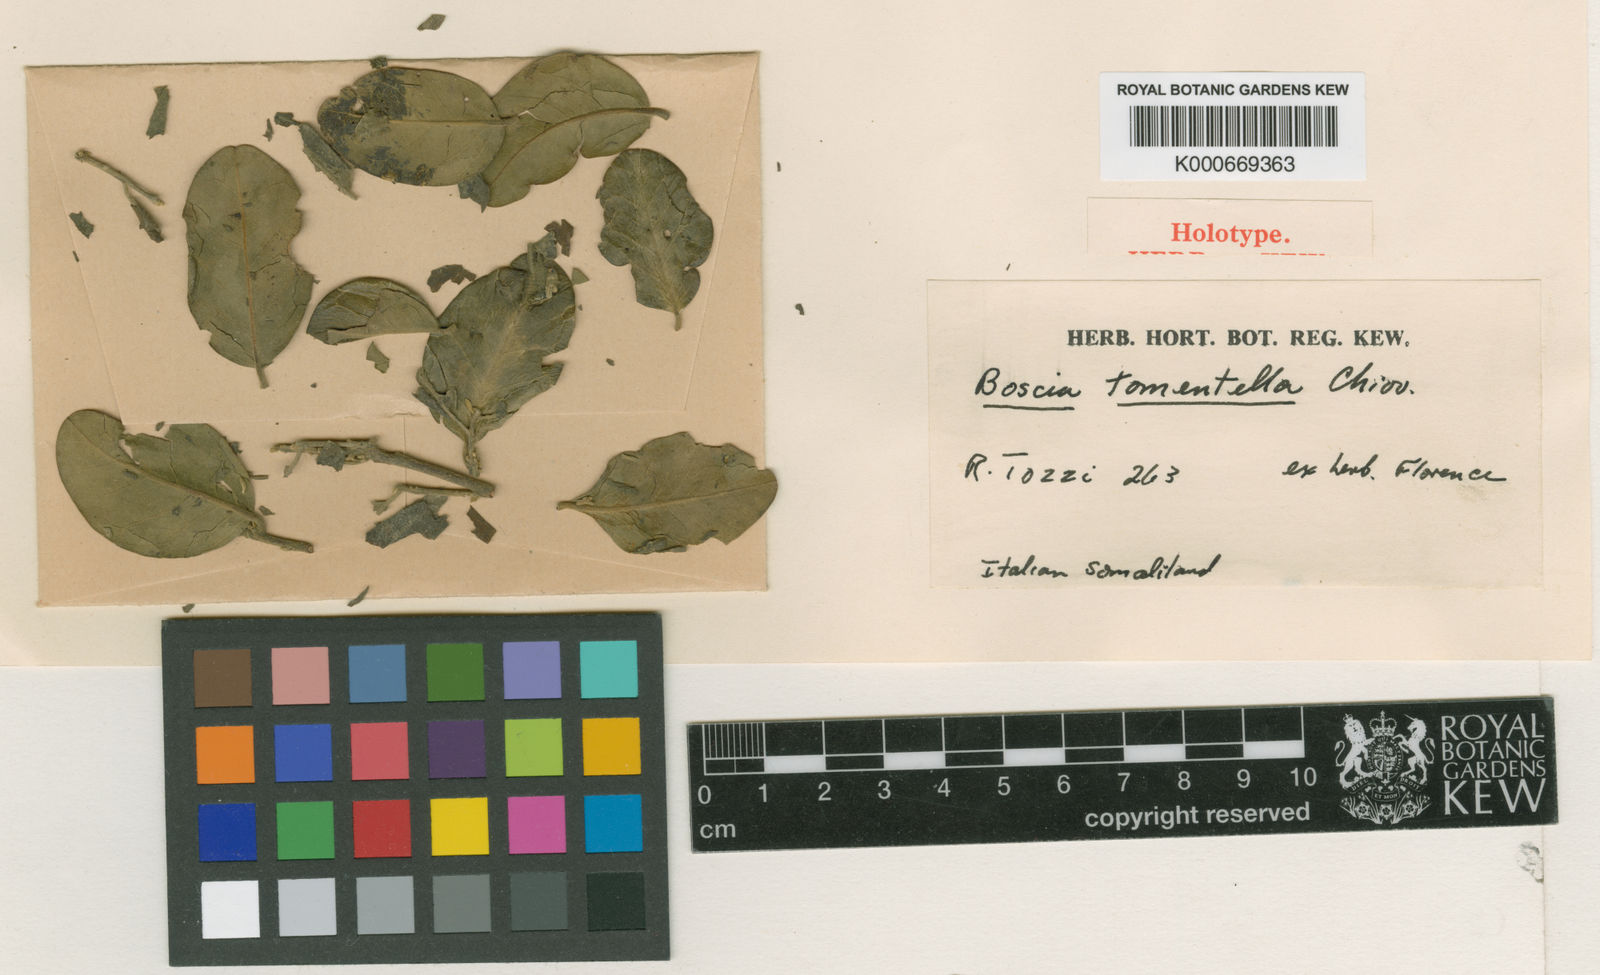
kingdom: Plantae
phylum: Tracheophyta
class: Magnoliopsida
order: Brassicales
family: Capparaceae
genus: Boscia
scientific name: Boscia mazzocchii
